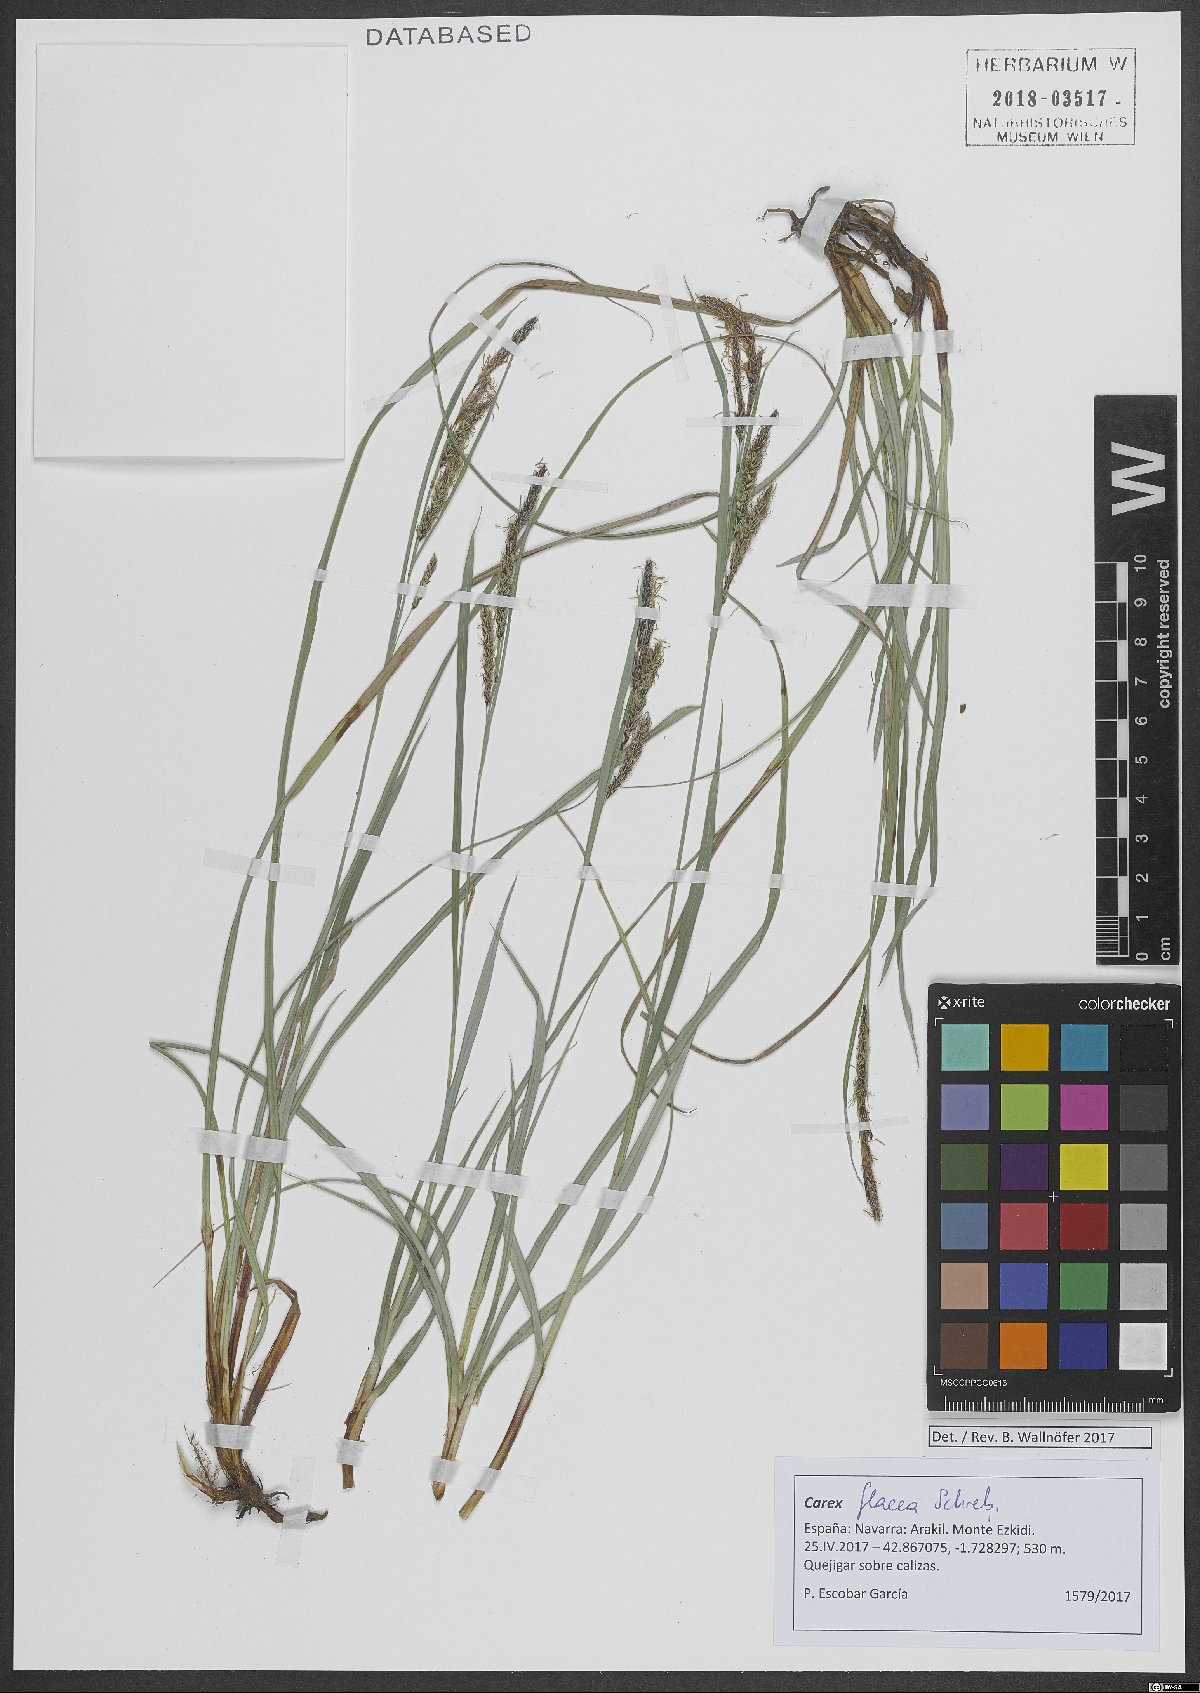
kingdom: Plantae
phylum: Tracheophyta
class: Liliopsida
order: Poales
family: Cyperaceae
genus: Carex
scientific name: Carex flacca
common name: Glaucous sedge
